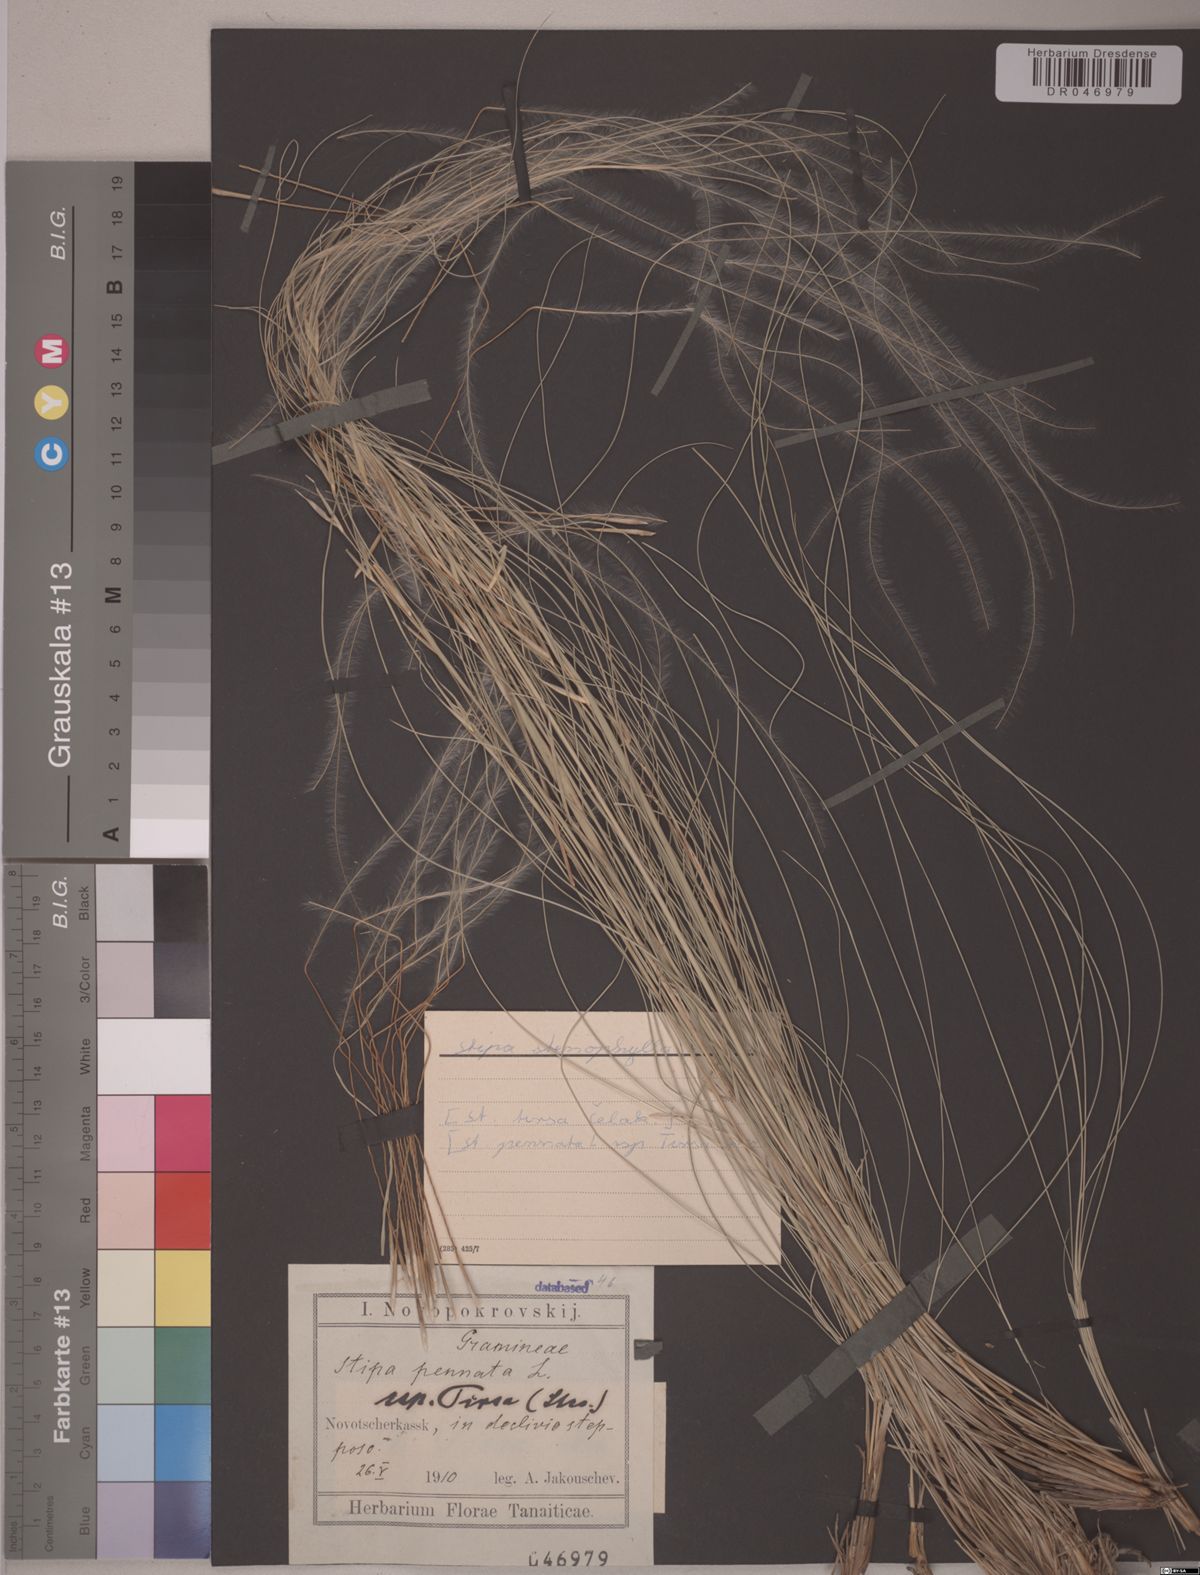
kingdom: Plantae
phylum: Tracheophyta
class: Liliopsida
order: Poales
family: Poaceae
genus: Stipa
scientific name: Stipa tirsa
